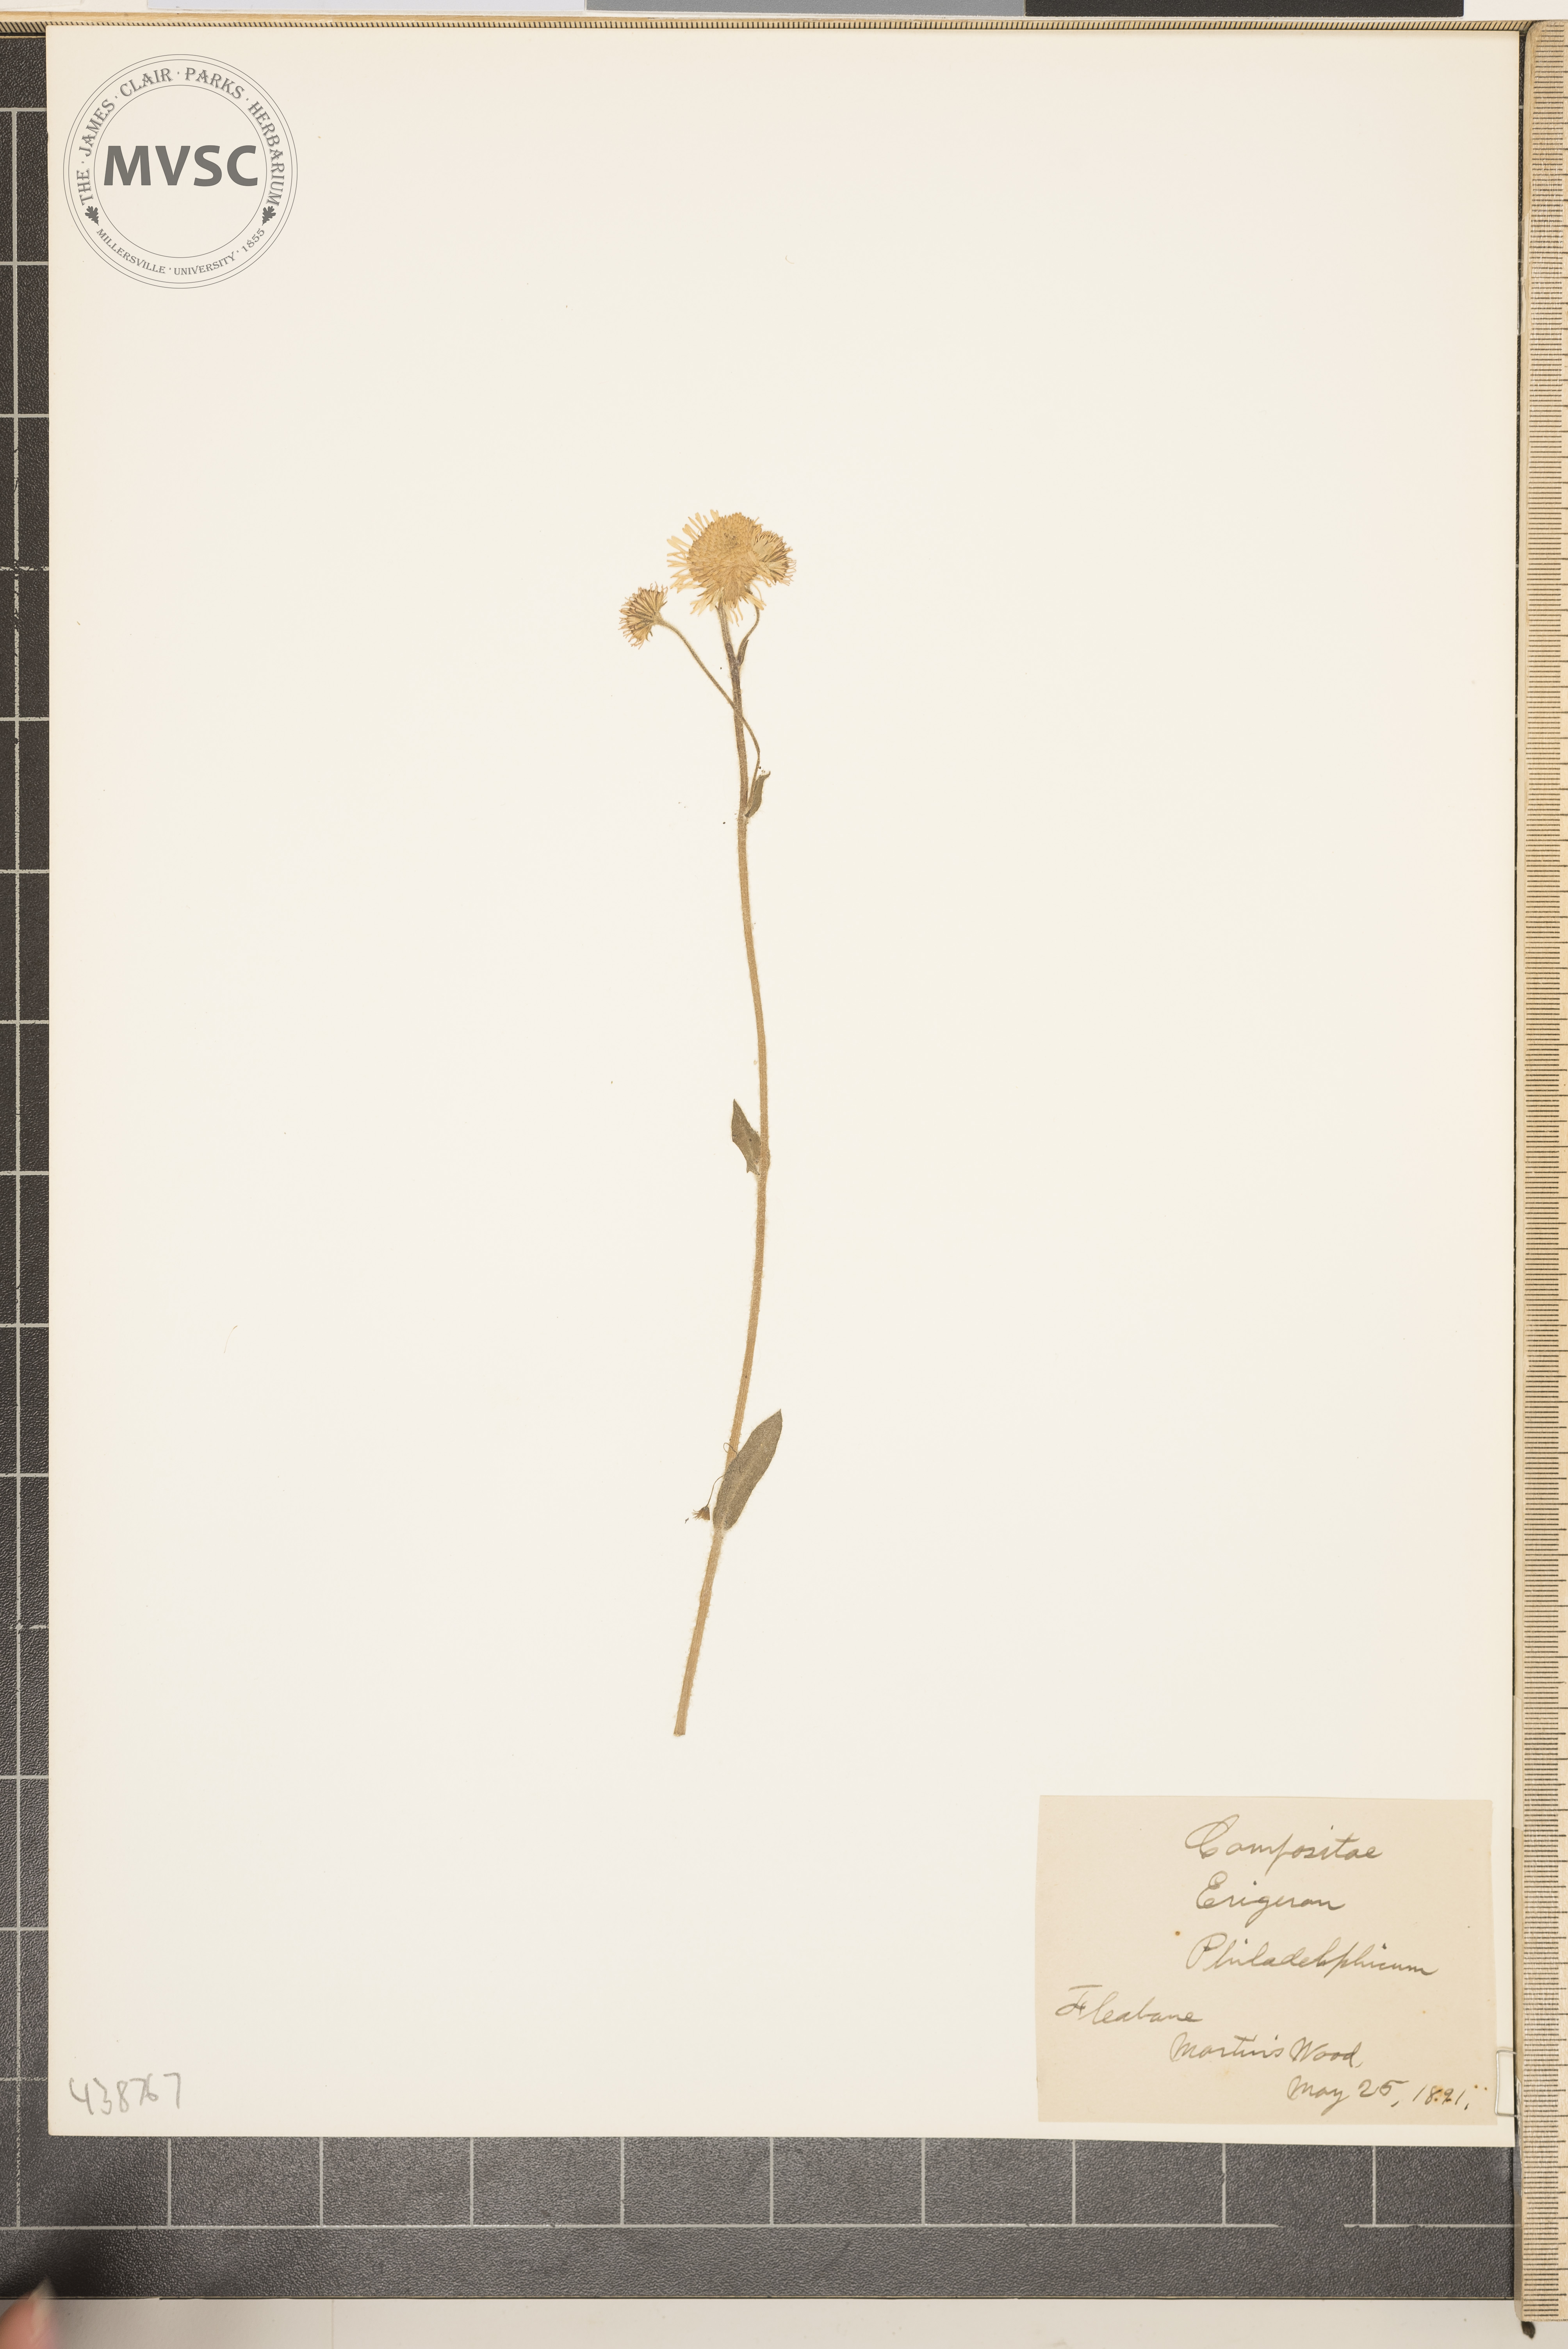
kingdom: Plantae
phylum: Tracheophyta
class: Magnoliopsida
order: Asterales
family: Asteraceae
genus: Erigeron
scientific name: Erigeron philadelphicus
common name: Fleabane
